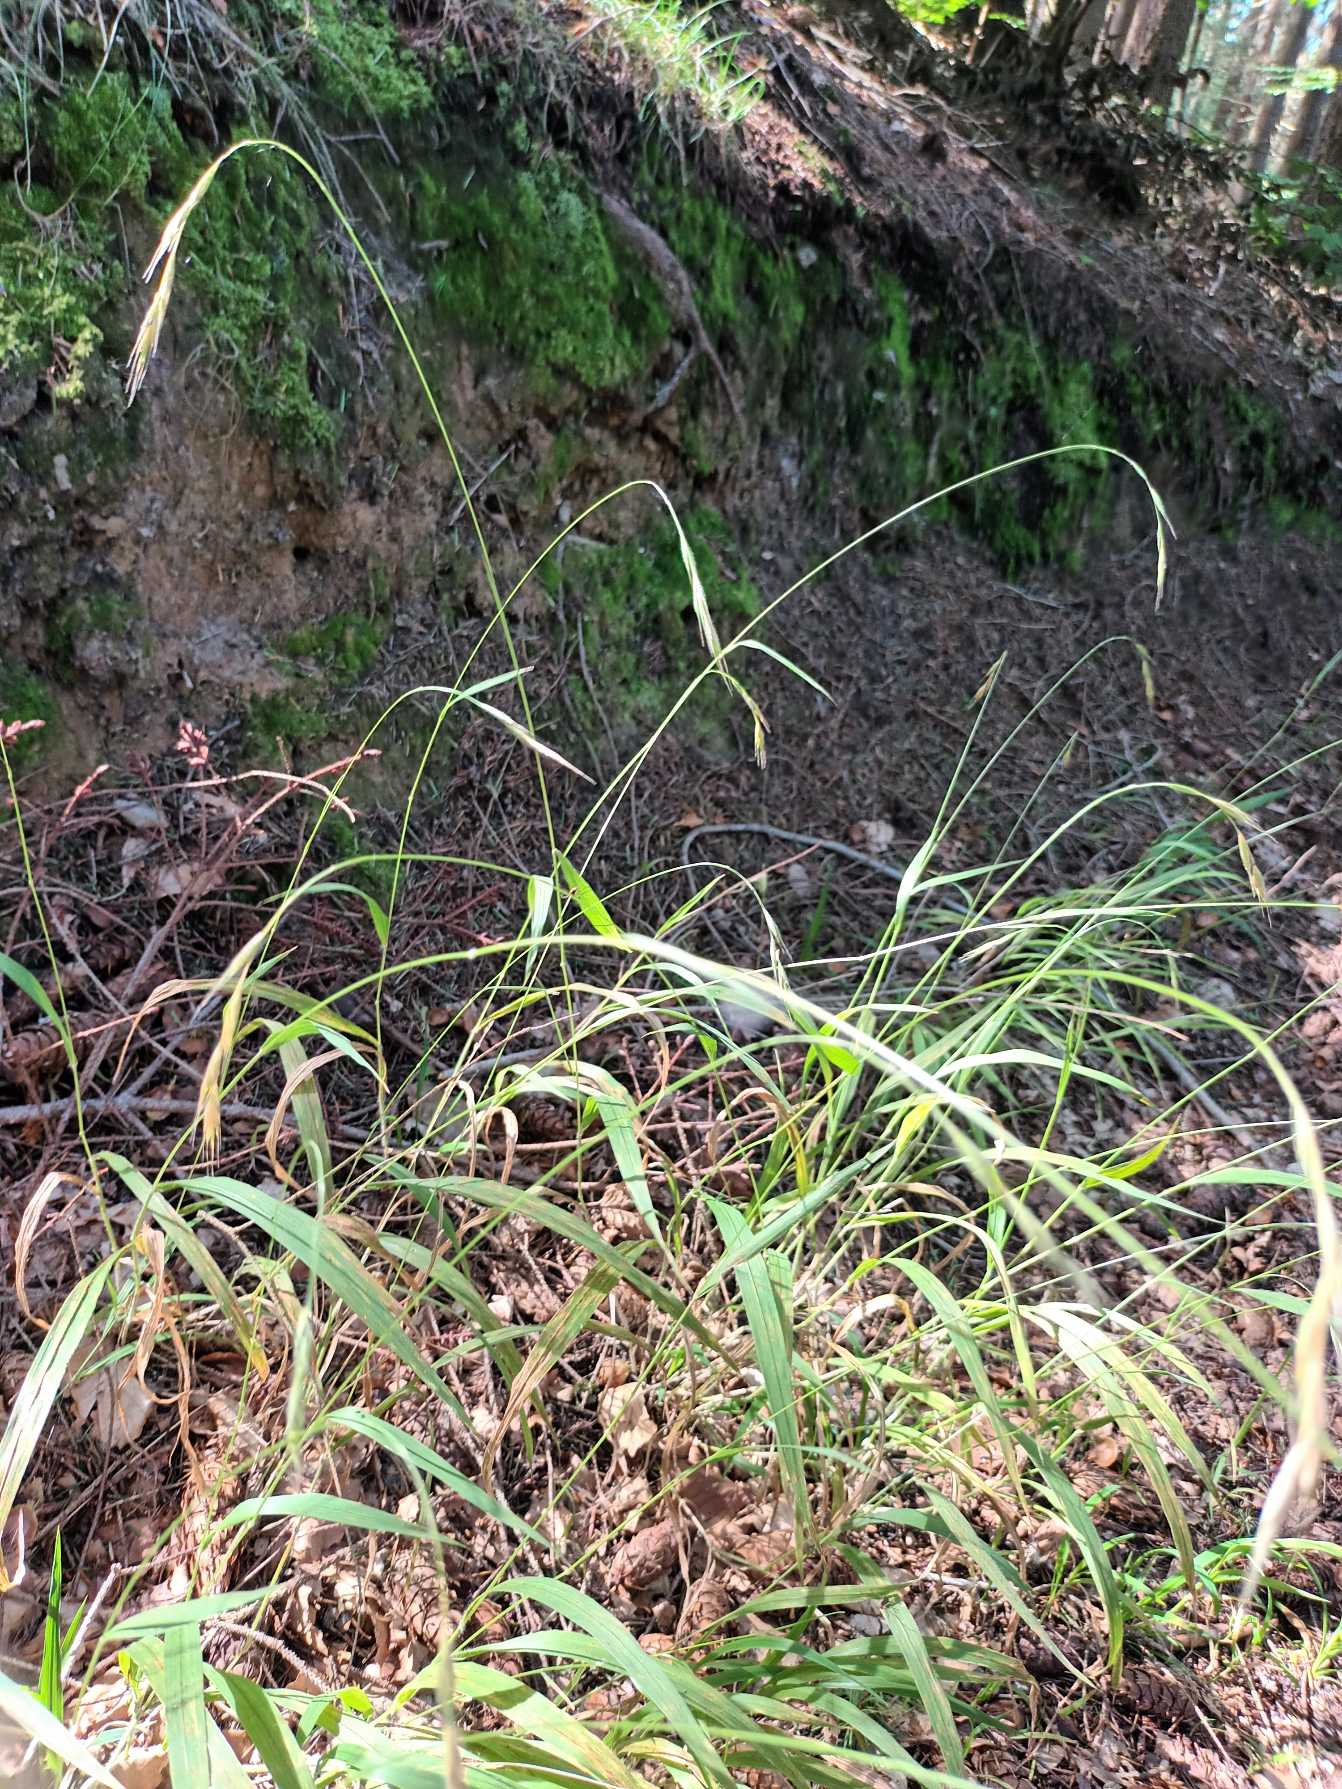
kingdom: Plantae
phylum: Tracheophyta
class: Liliopsida
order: Poales
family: Poaceae
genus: Brachypodium
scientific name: Brachypodium sylvaticum
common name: Skov-stilkaks
